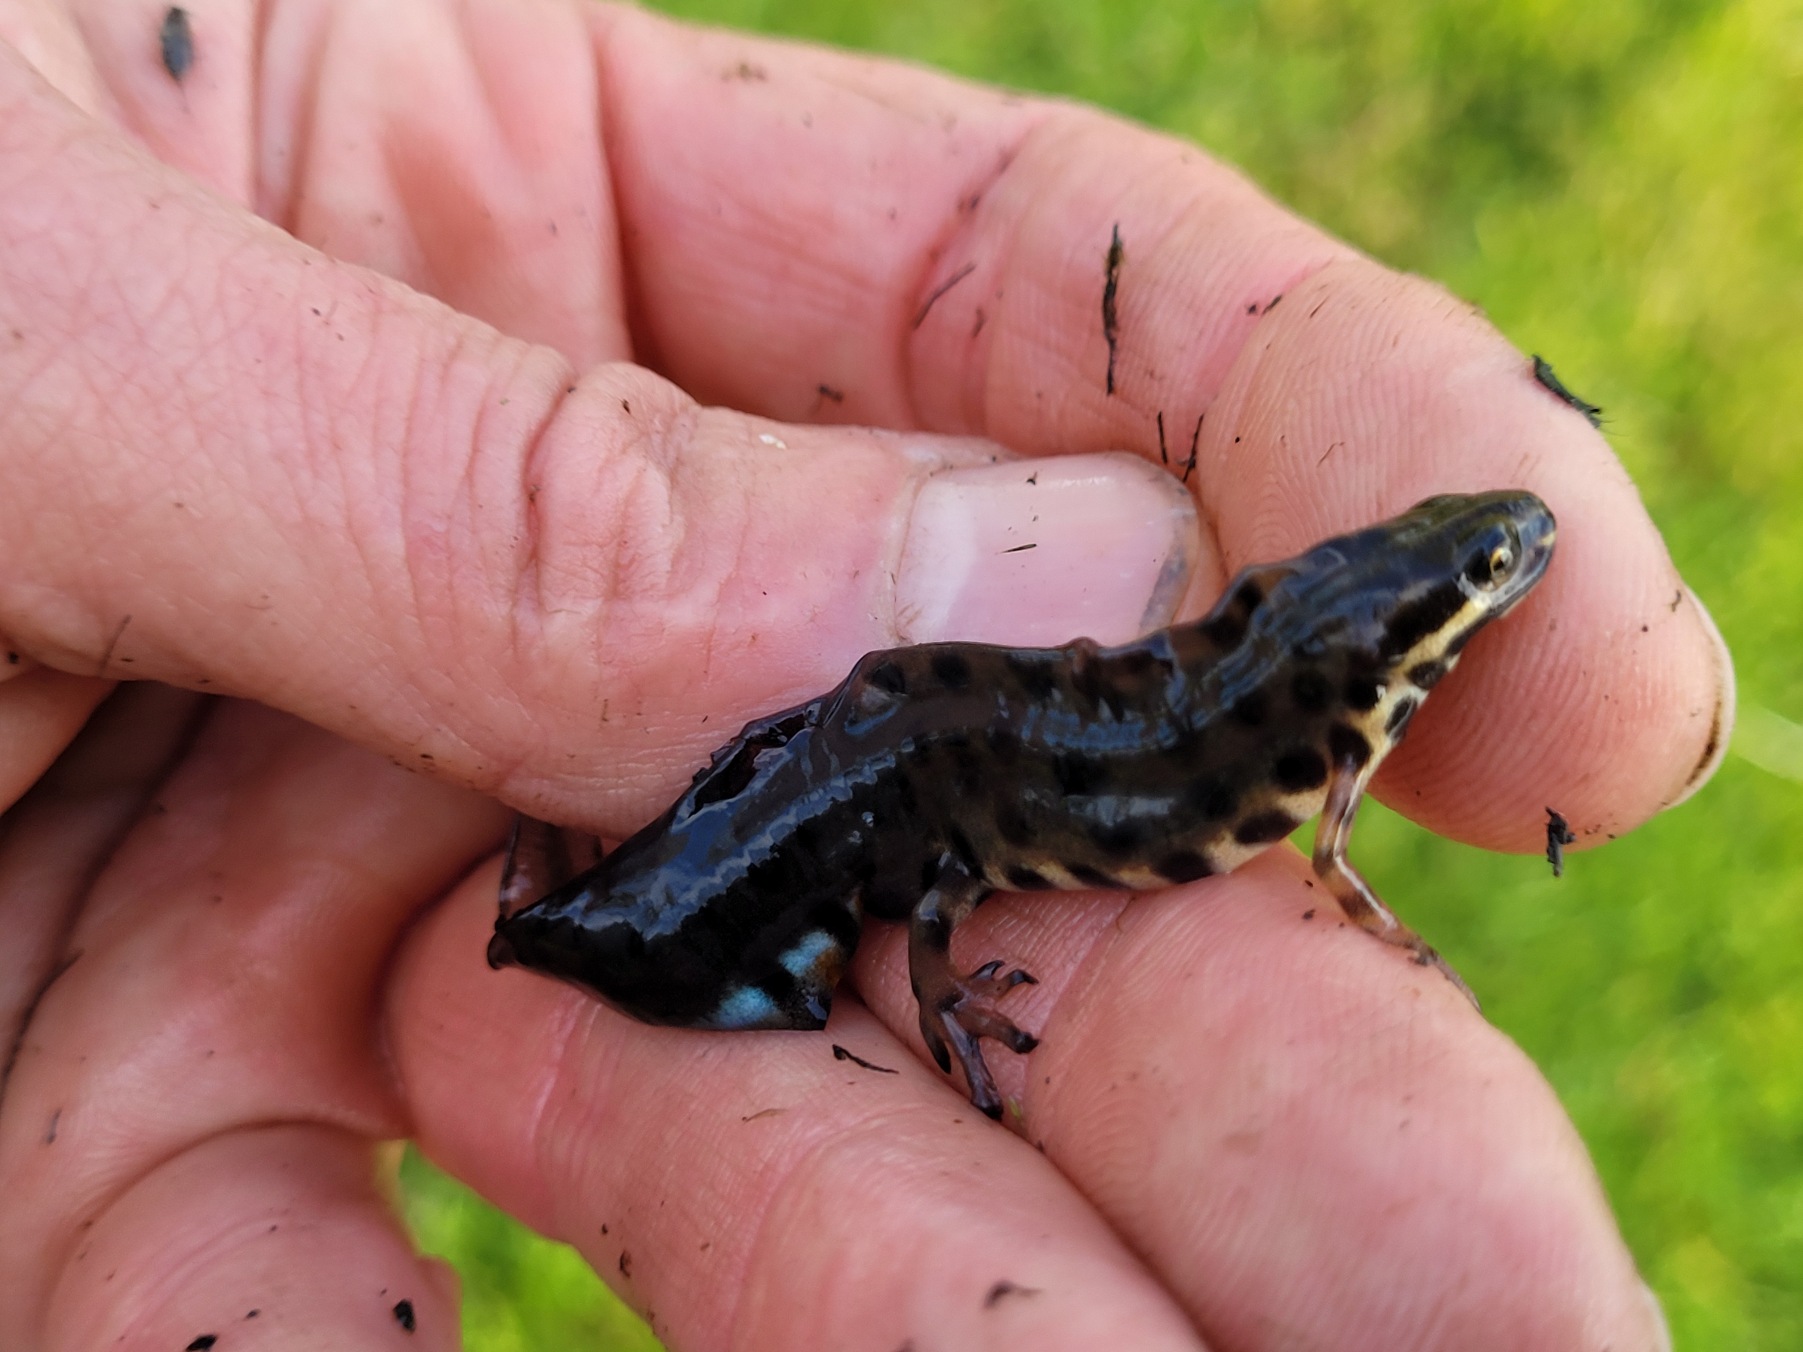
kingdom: Animalia
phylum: Chordata
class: Amphibia
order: Caudata
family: Salamandridae
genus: Lissotriton
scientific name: Lissotriton vulgaris
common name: Lille vandsalamander
